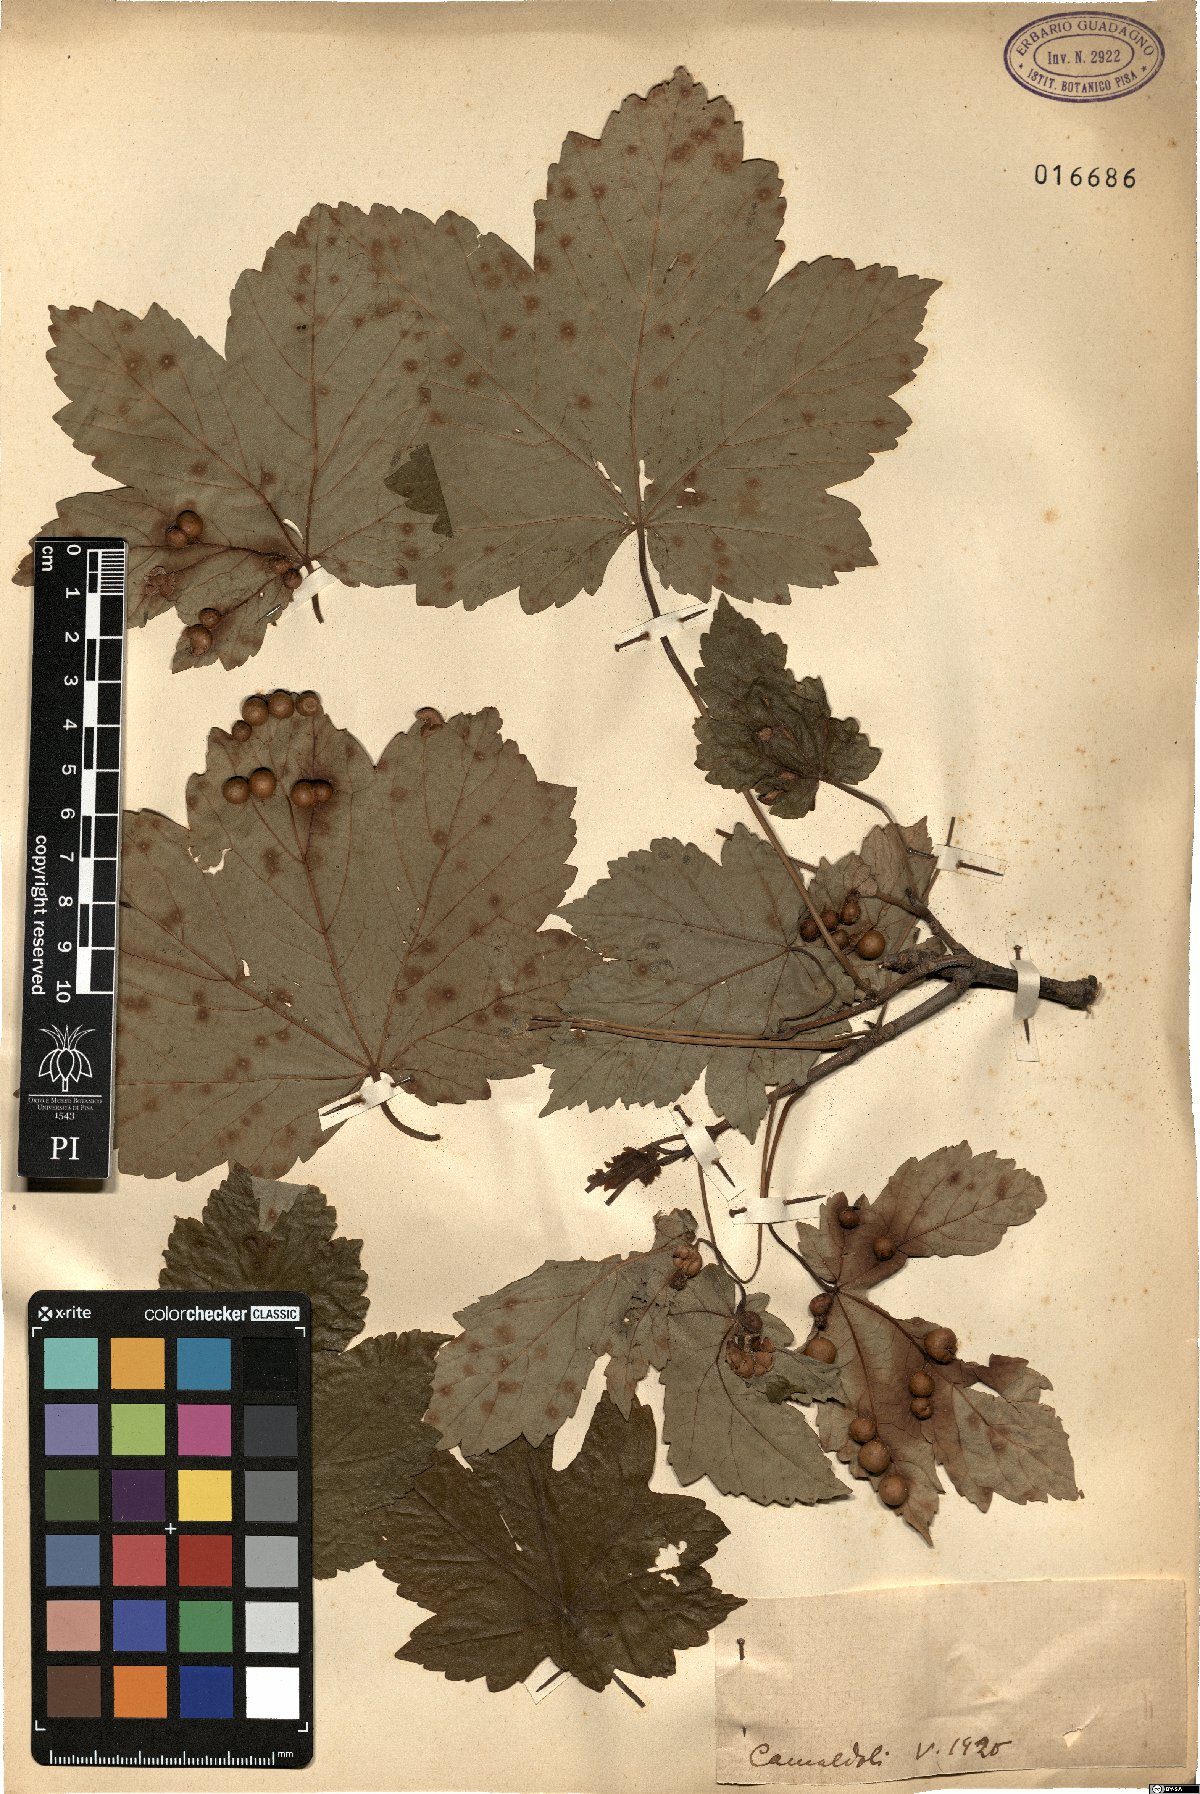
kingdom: Plantae
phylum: Tracheophyta
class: Magnoliopsida
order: Sapindales
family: Sapindaceae
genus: Acer
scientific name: Acer
